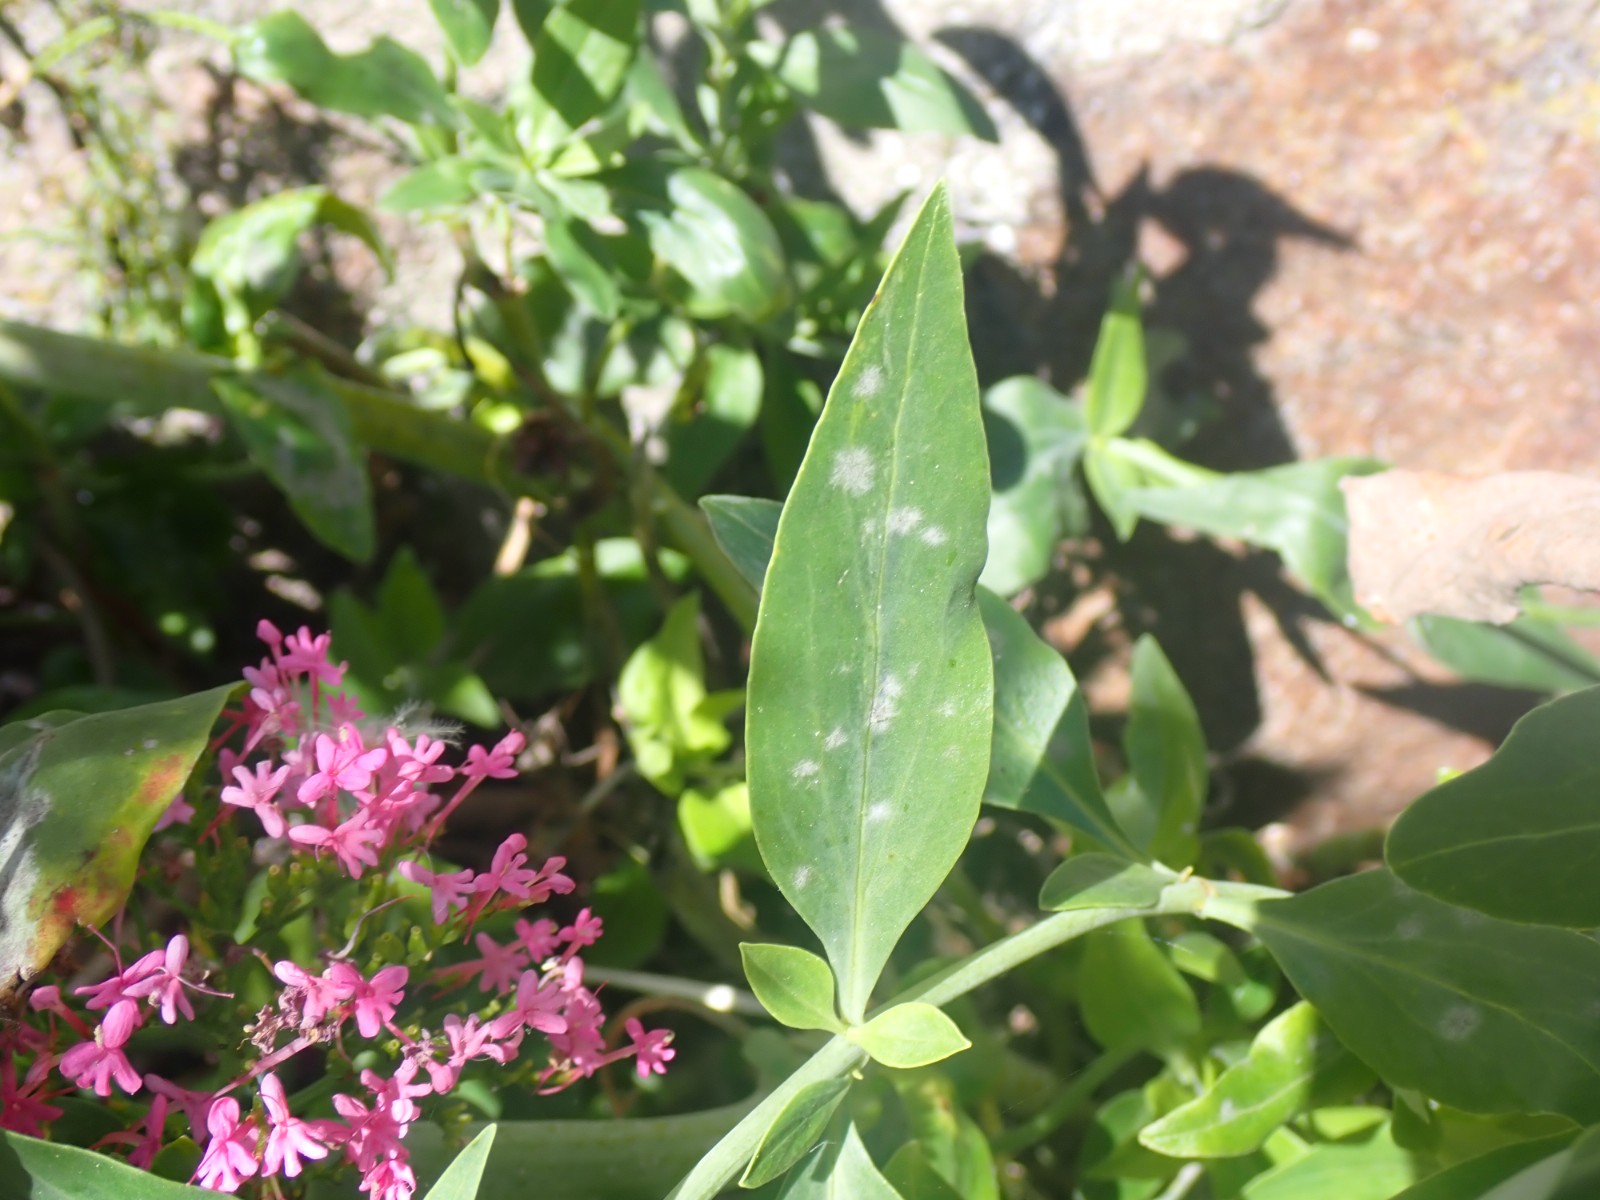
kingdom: Fungi
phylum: Ascomycota
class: Leotiomycetes
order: Helotiales
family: Erysiphaceae
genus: Golovinomyces
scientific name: Golovinomyces valerianae
